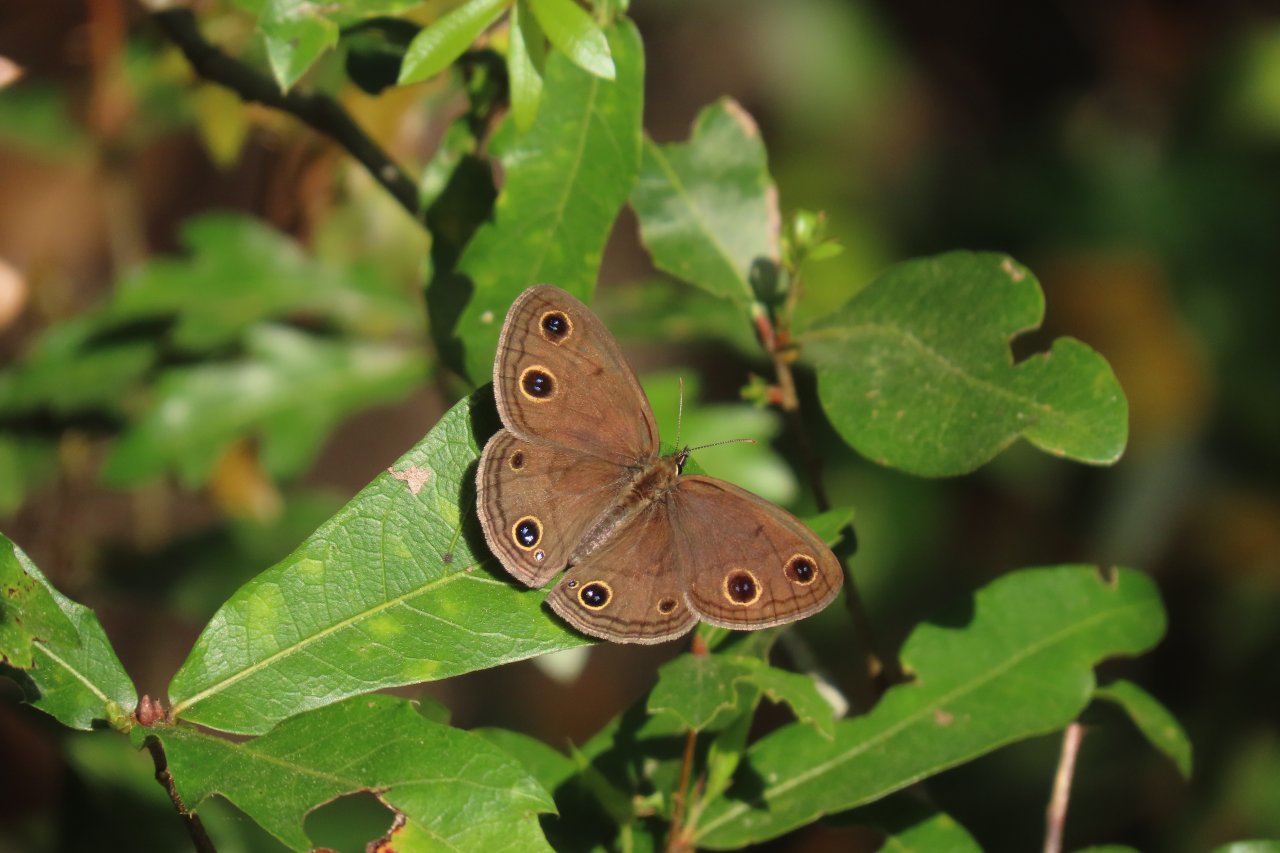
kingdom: Animalia
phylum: Arthropoda
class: Insecta
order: Lepidoptera
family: Nymphalidae
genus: Euptychia
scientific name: Euptychia cymela
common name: Little Wood Satyr
